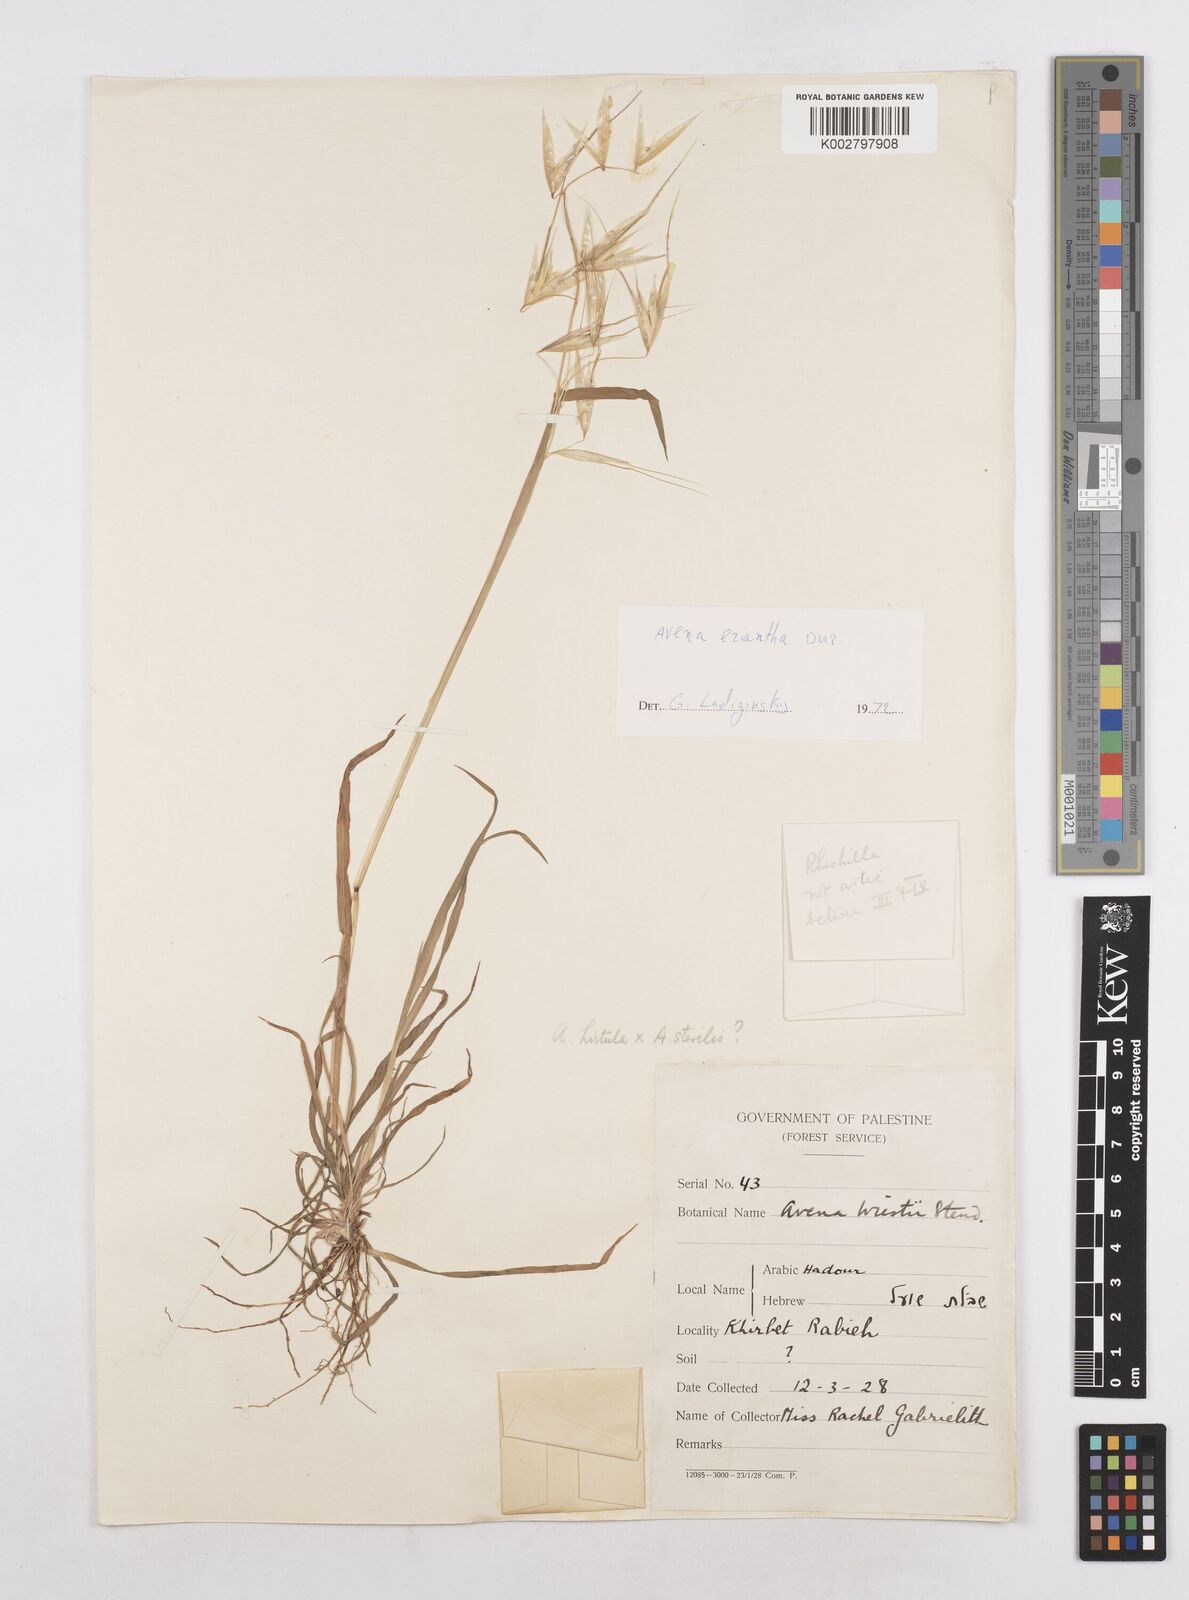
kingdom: Plantae
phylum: Tracheophyta
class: Liliopsida
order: Poales
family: Poaceae
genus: Avena
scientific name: Avena
